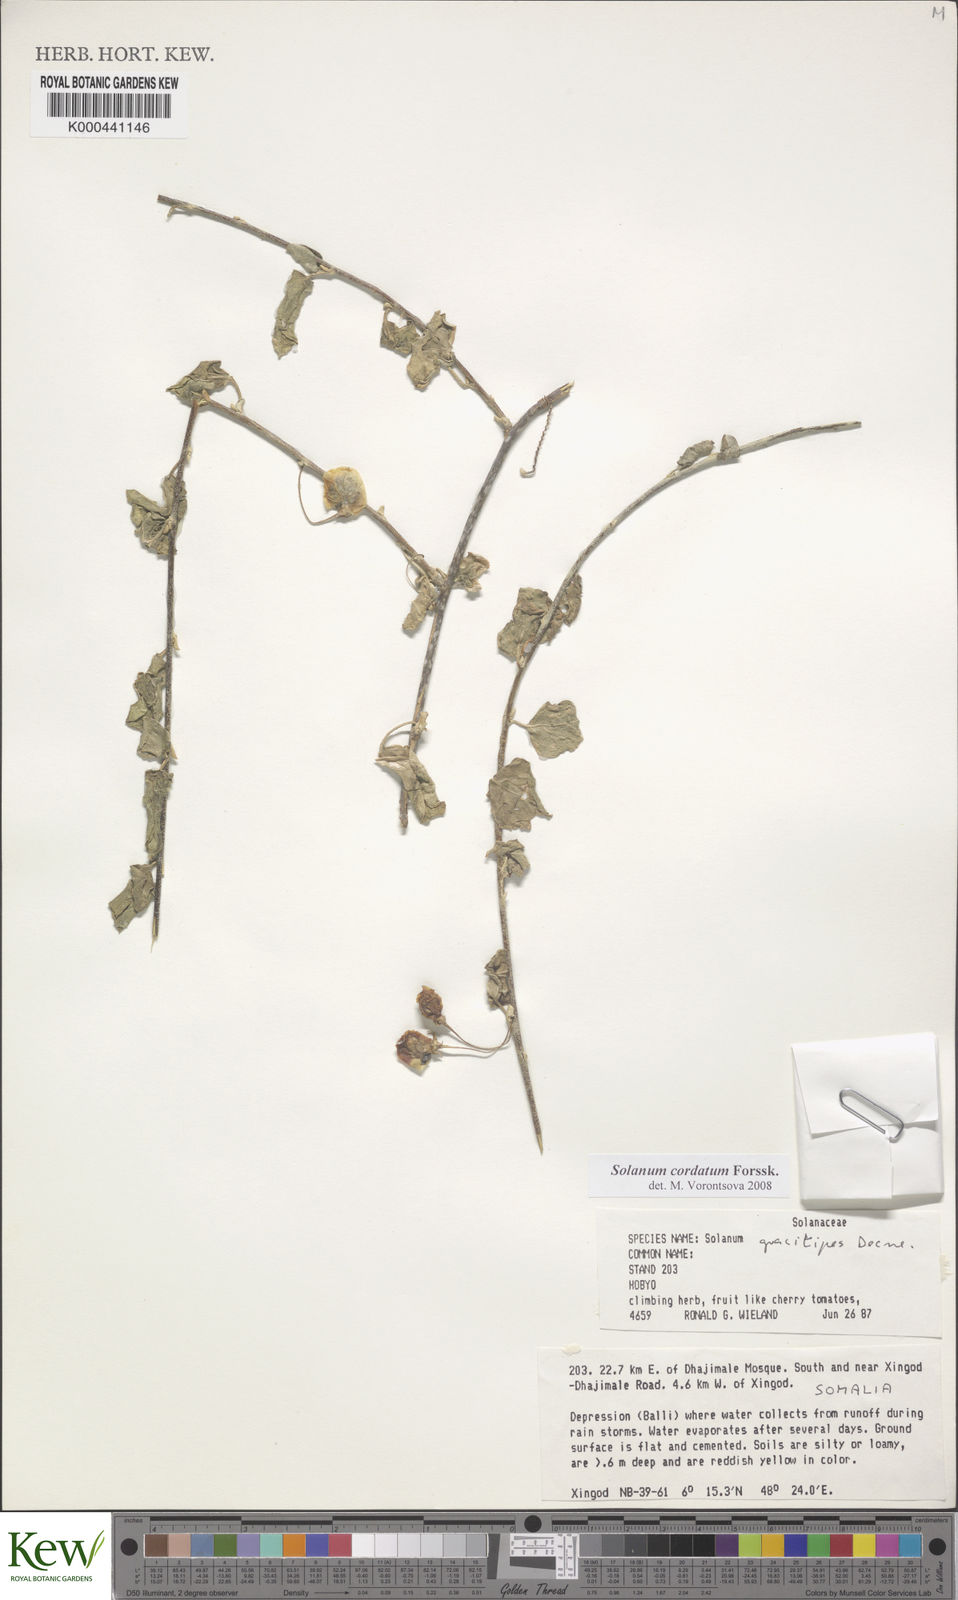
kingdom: Plantae
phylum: Tracheophyta
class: Magnoliopsida
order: Solanales
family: Solanaceae
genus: Solanum
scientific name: Solanum cordatum
